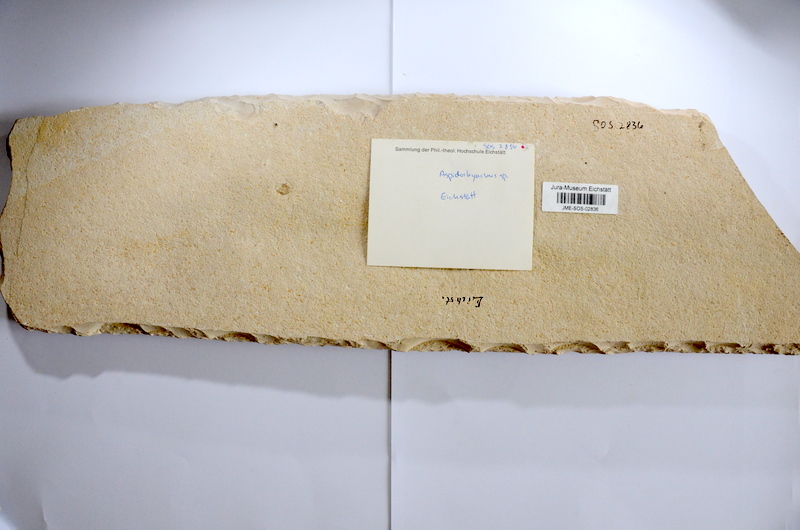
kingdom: Animalia
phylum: Chordata
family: Aspidorhynchidae
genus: Aspidorhynchus
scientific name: Aspidorhynchus acutirostris
